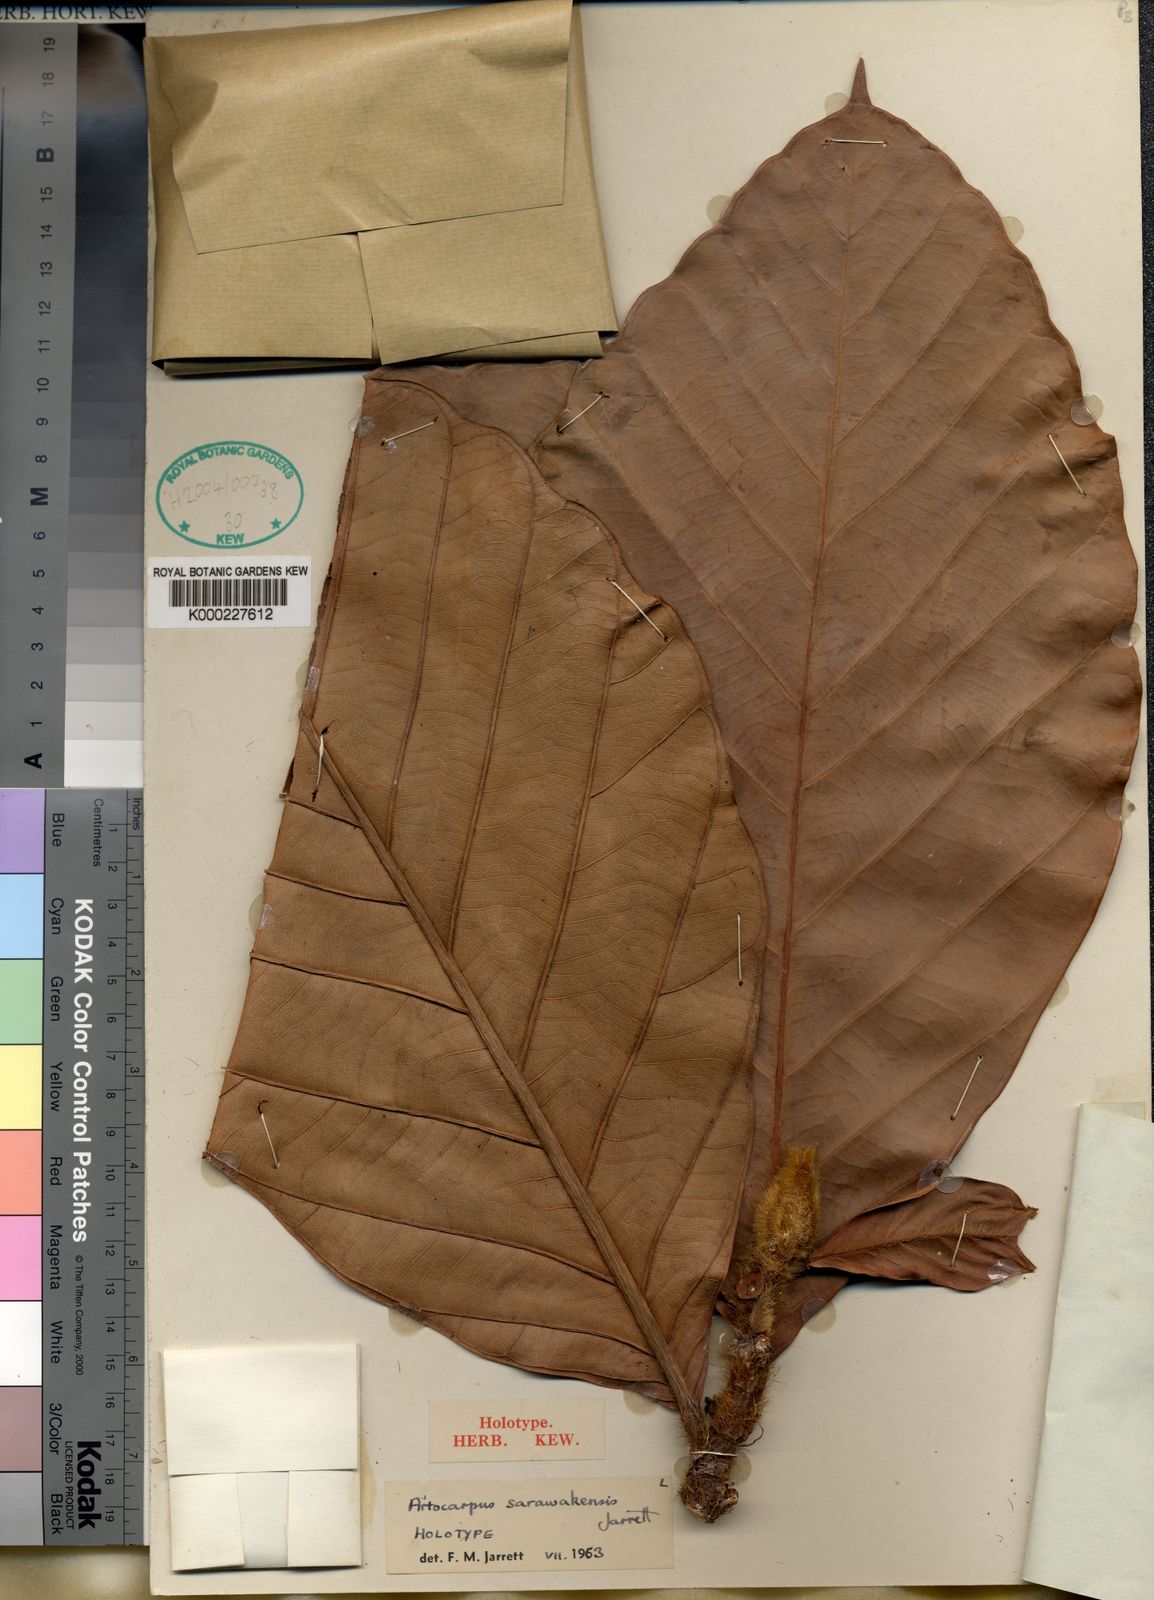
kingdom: Plantae
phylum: Tracheophyta
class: Magnoliopsida
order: Rosales
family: Moraceae
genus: Artocarpus
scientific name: Artocarpus sarawakensis
